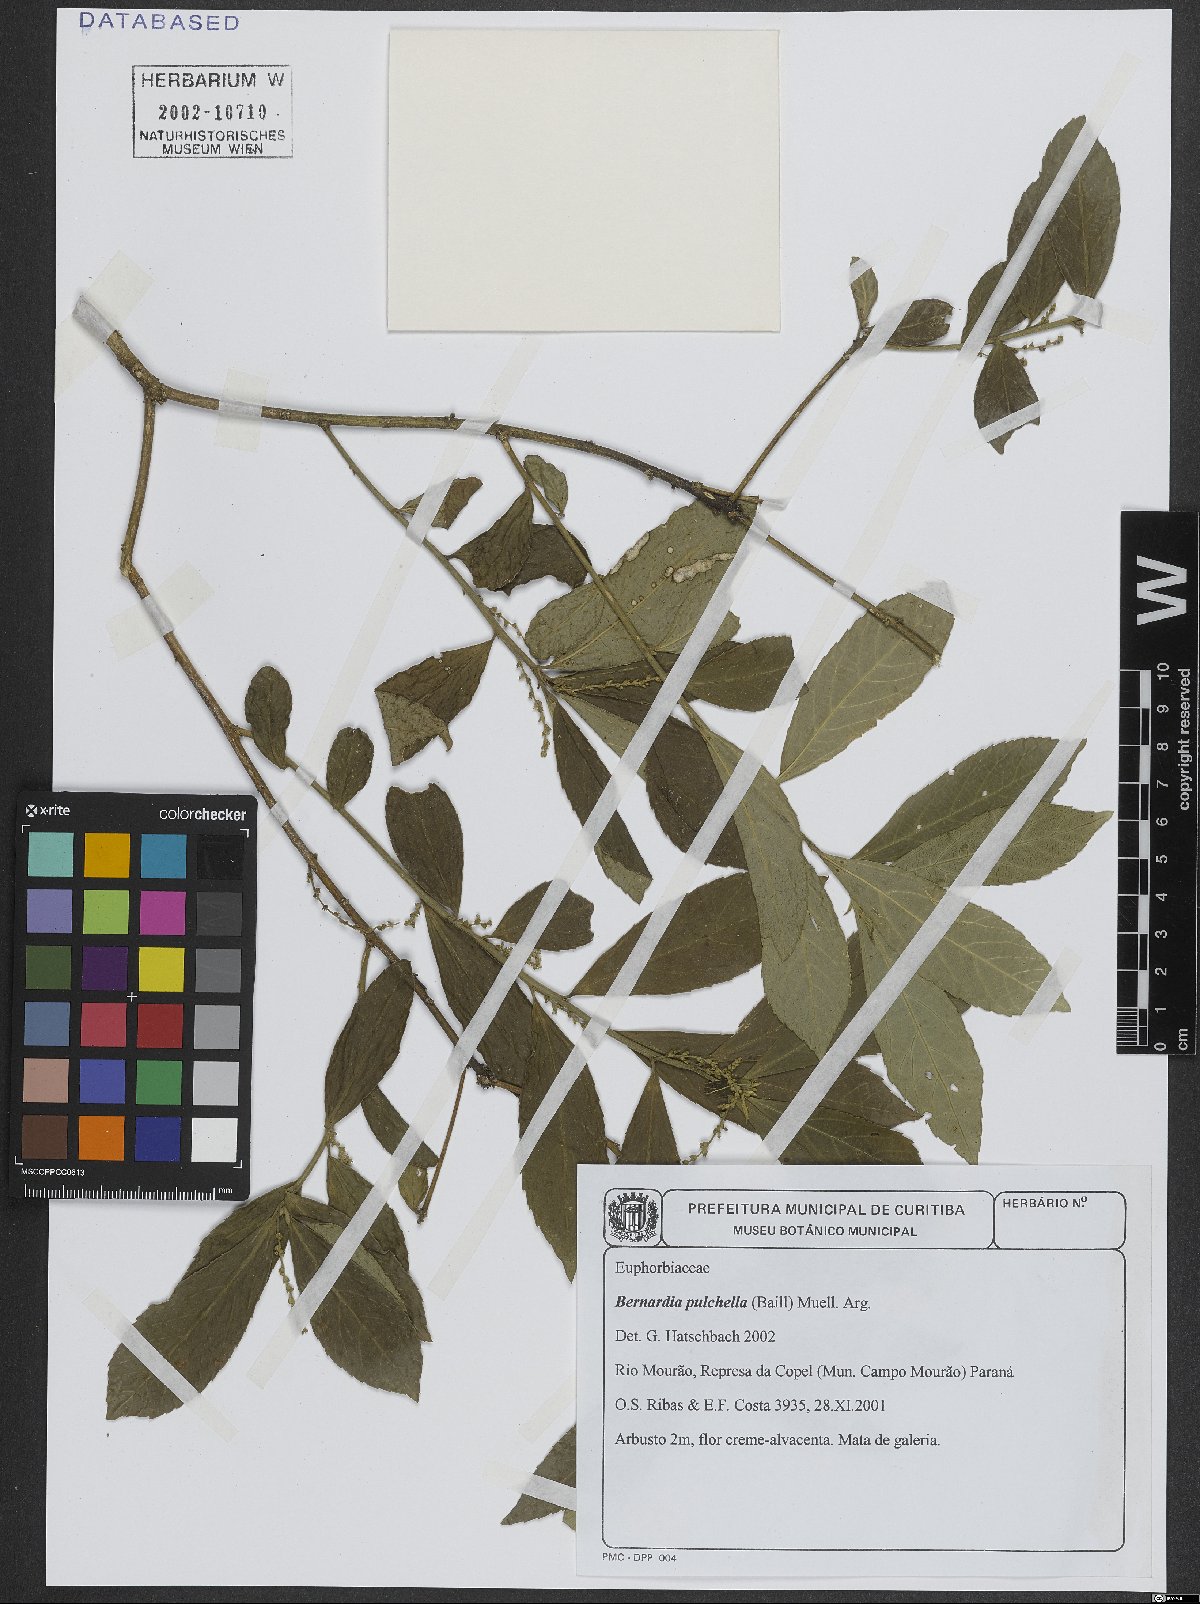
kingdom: Plantae
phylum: Tracheophyta
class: Magnoliopsida
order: Malpighiales
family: Euphorbiaceae
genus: Bernardia
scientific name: Bernardia pulchella
